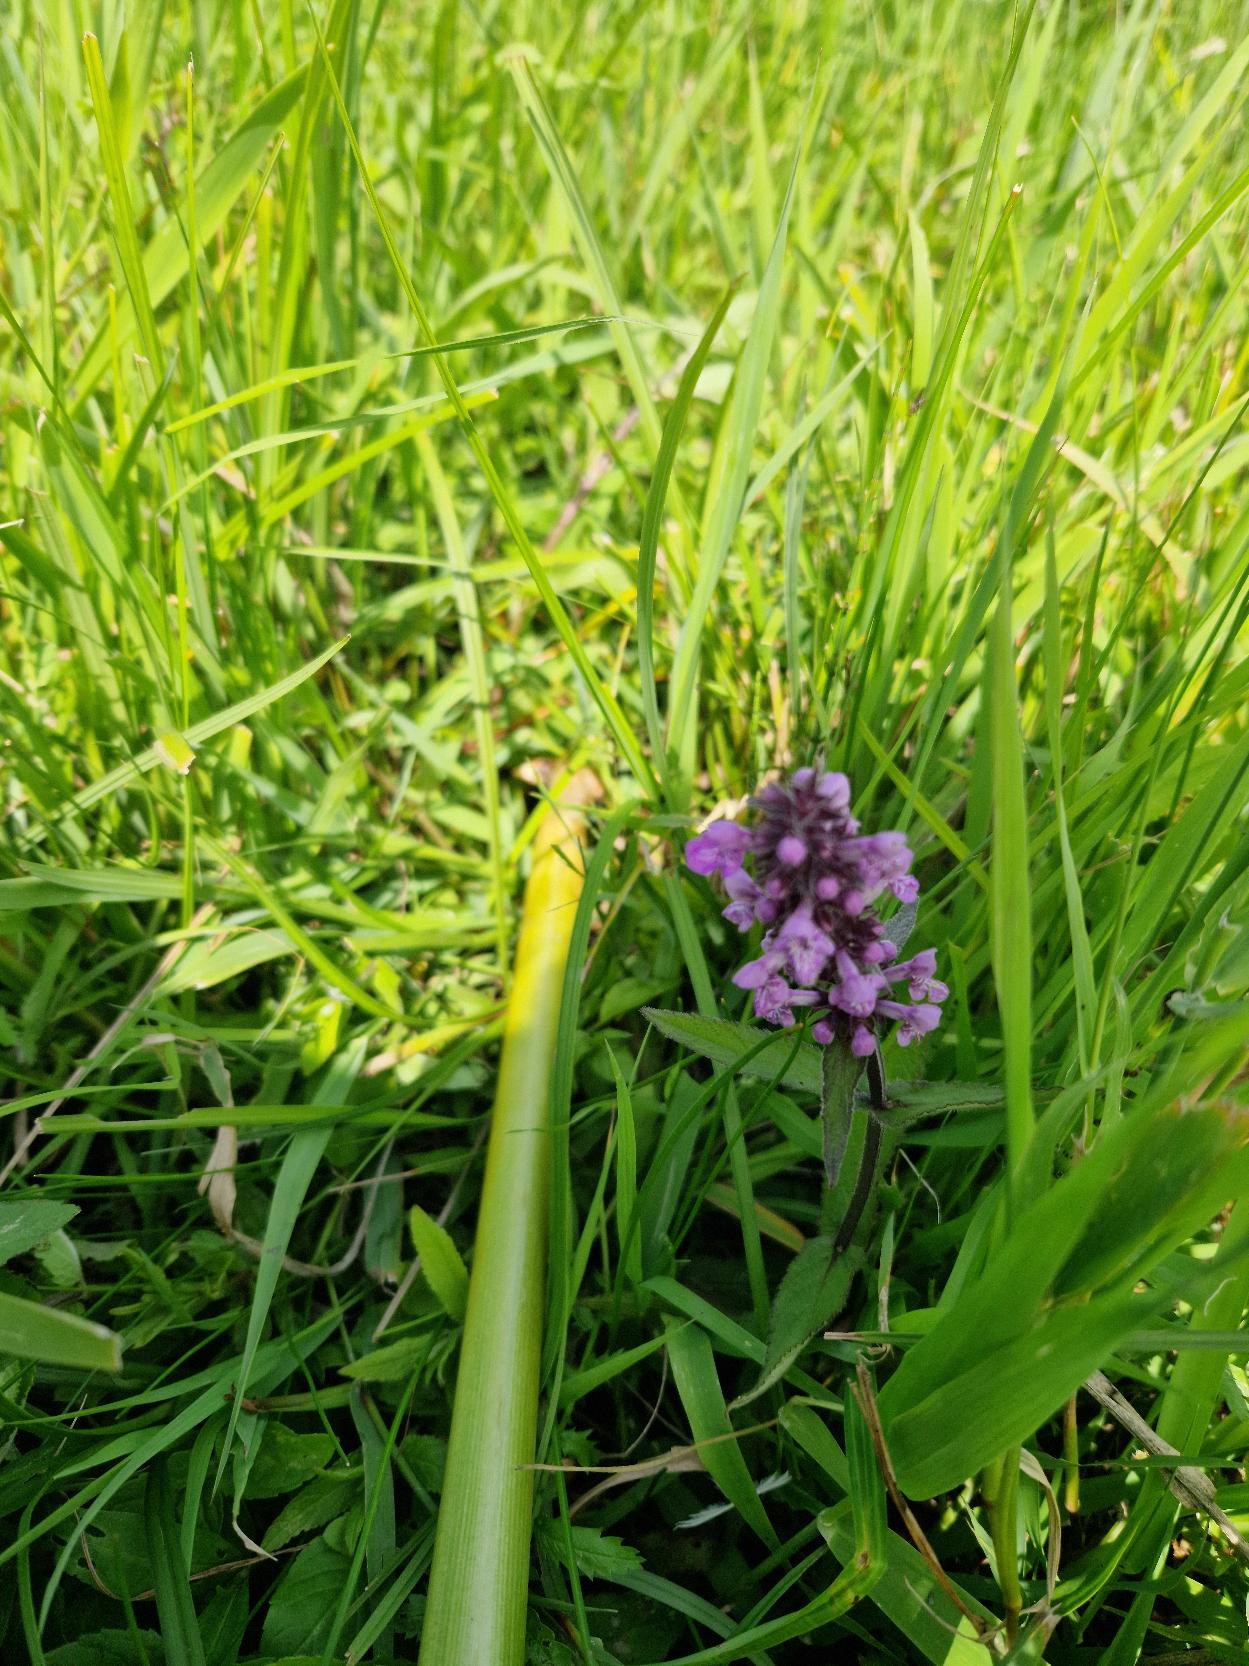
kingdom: Plantae
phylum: Tracheophyta
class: Magnoliopsida
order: Lamiales
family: Lamiaceae
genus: Stachys
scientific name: Stachys palustris
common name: Kær-galtetand
